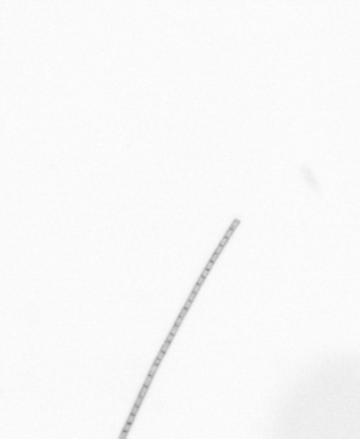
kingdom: Chromista
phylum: Ochrophyta
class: Bacillariophyceae
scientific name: Bacillariophyceae
